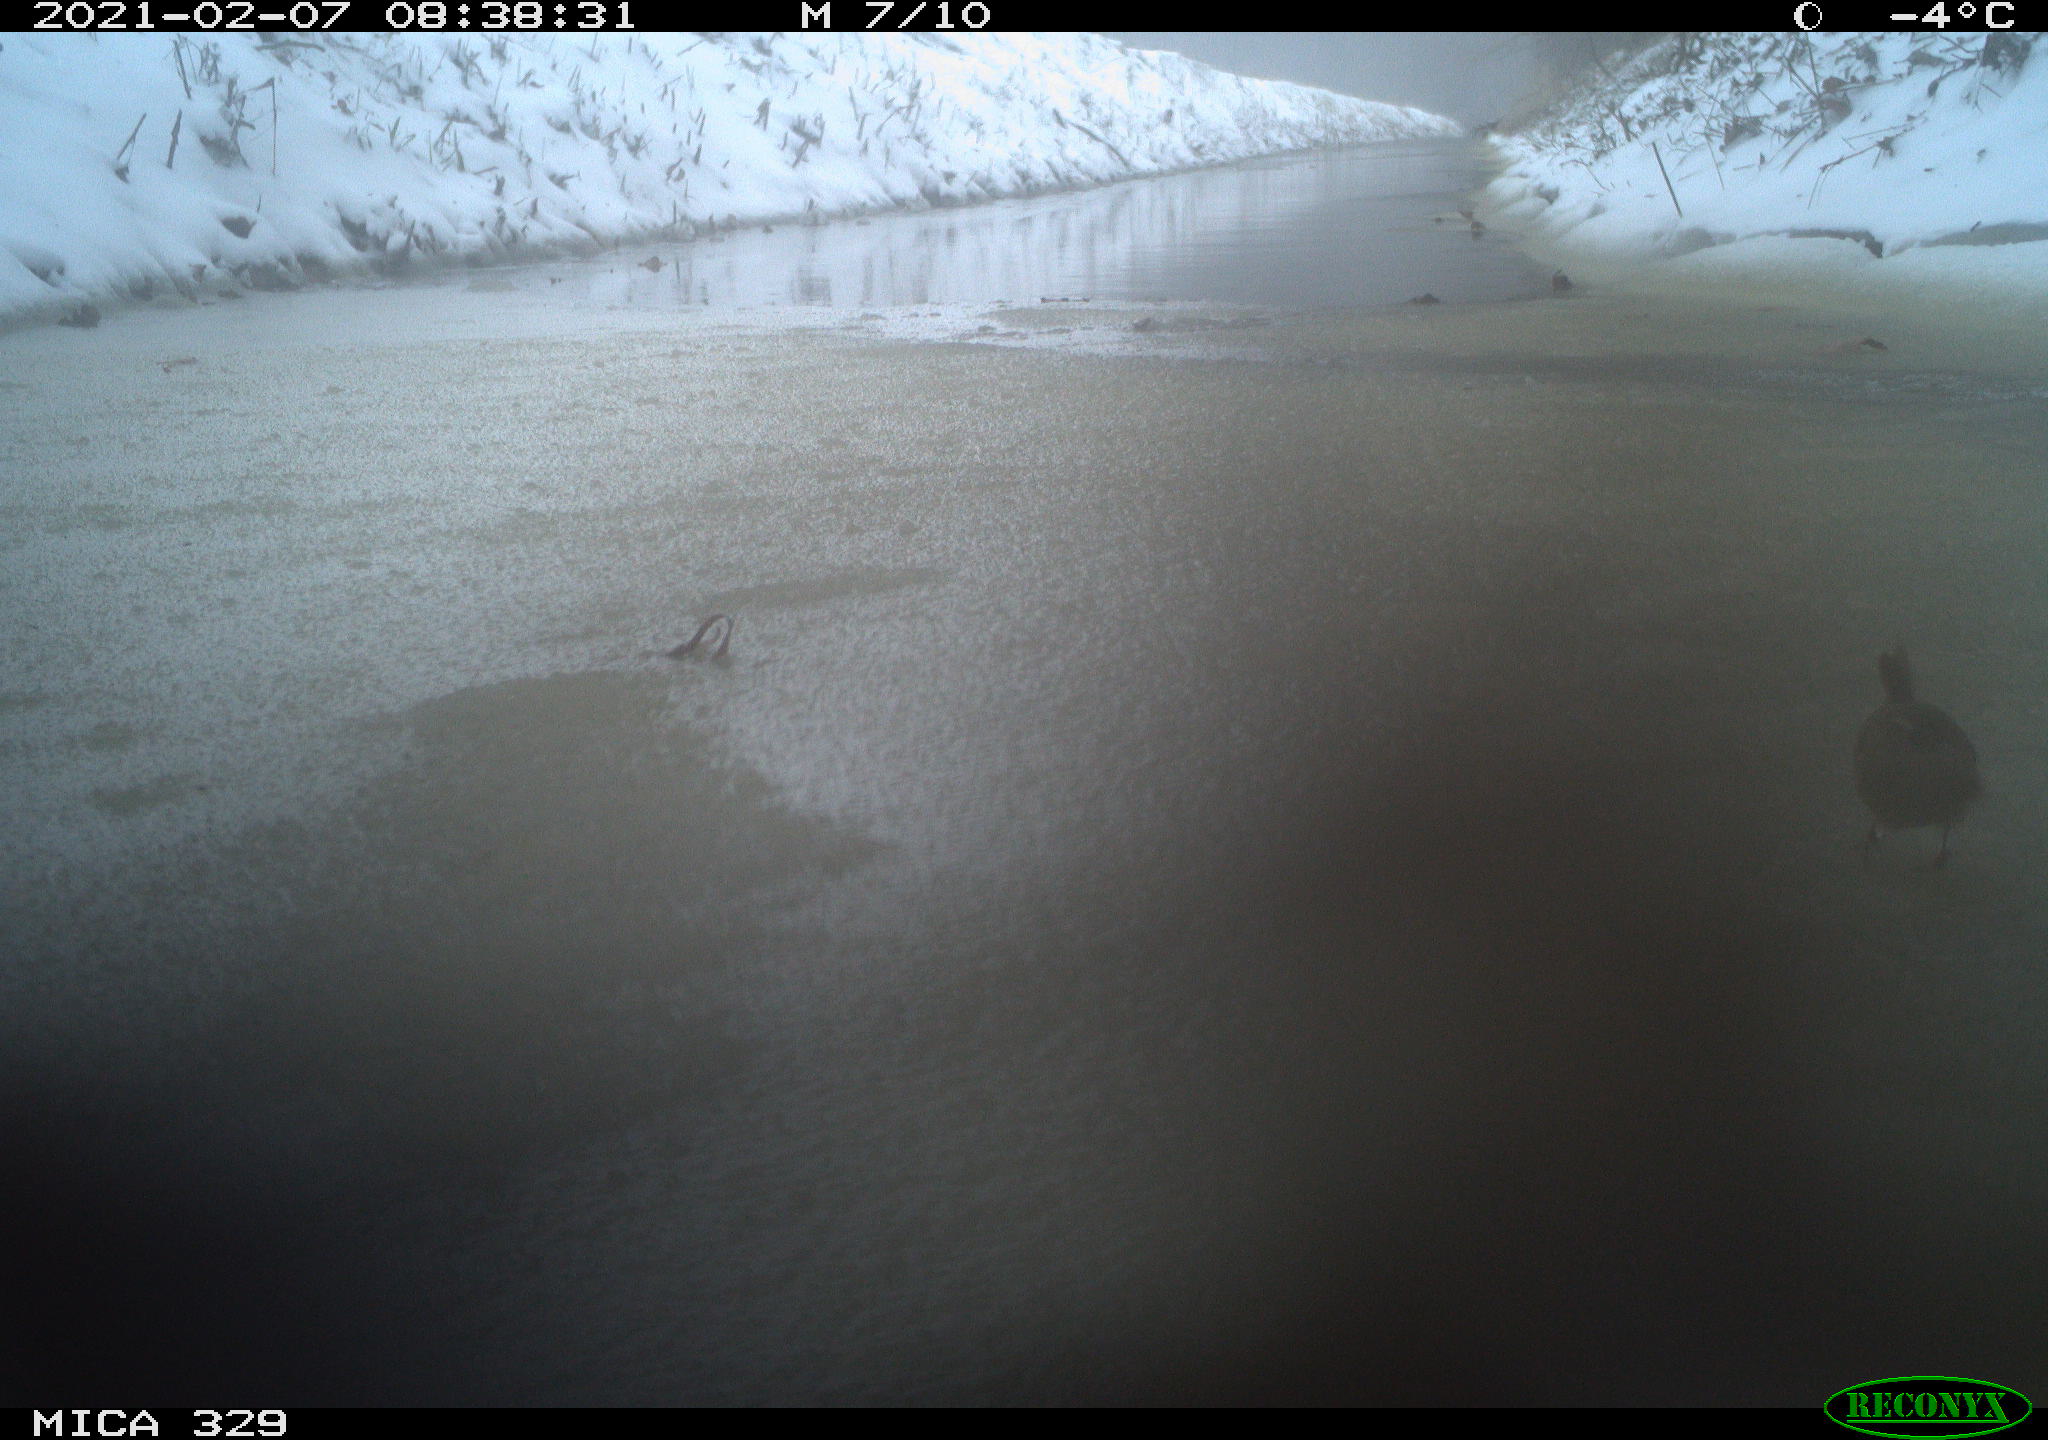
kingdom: Animalia
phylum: Chordata
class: Aves
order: Passeriformes
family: Troglodytidae
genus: Troglodytes
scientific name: Troglodytes troglodytes
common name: Eurasian wren
